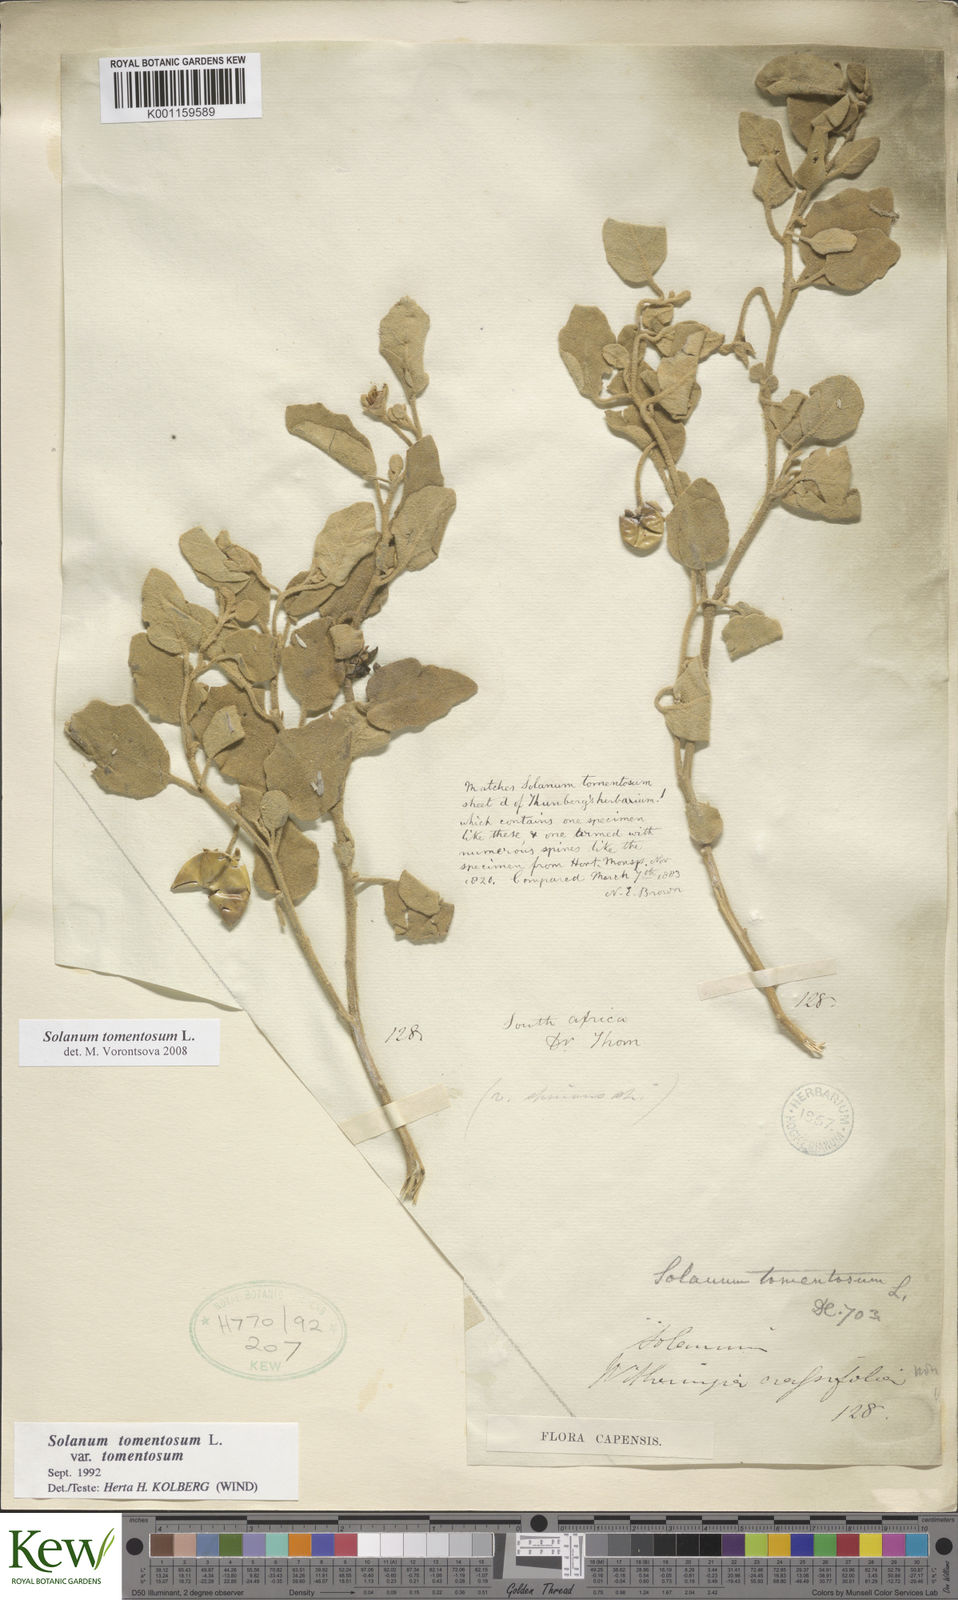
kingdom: Plantae
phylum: Tracheophyta
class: Magnoliopsida
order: Solanales
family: Solanaceae
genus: Solanum
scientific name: Solanum tomentosum
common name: Wild aubergine
